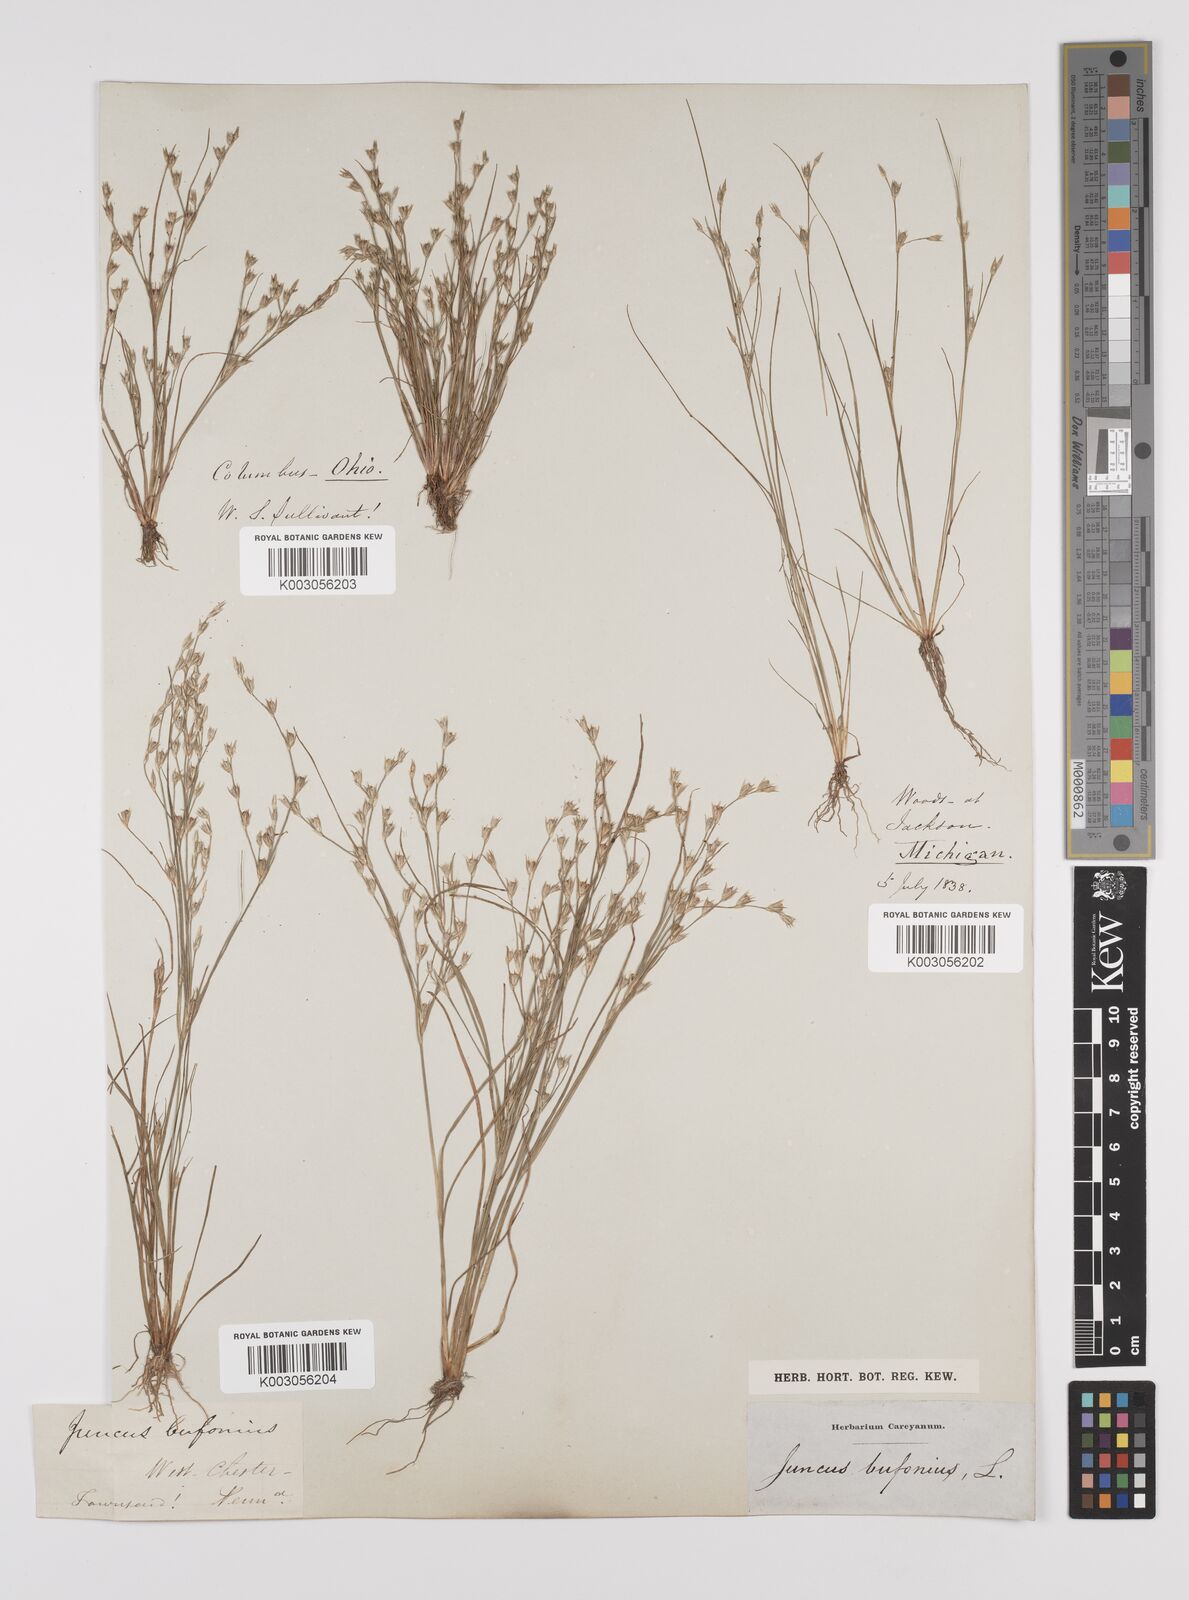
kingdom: Plantae
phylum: Tracheophyta
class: Liliopsida
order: Poales
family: Juncaceae
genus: Juncus
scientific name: Juncus bufonius
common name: Toad rush
